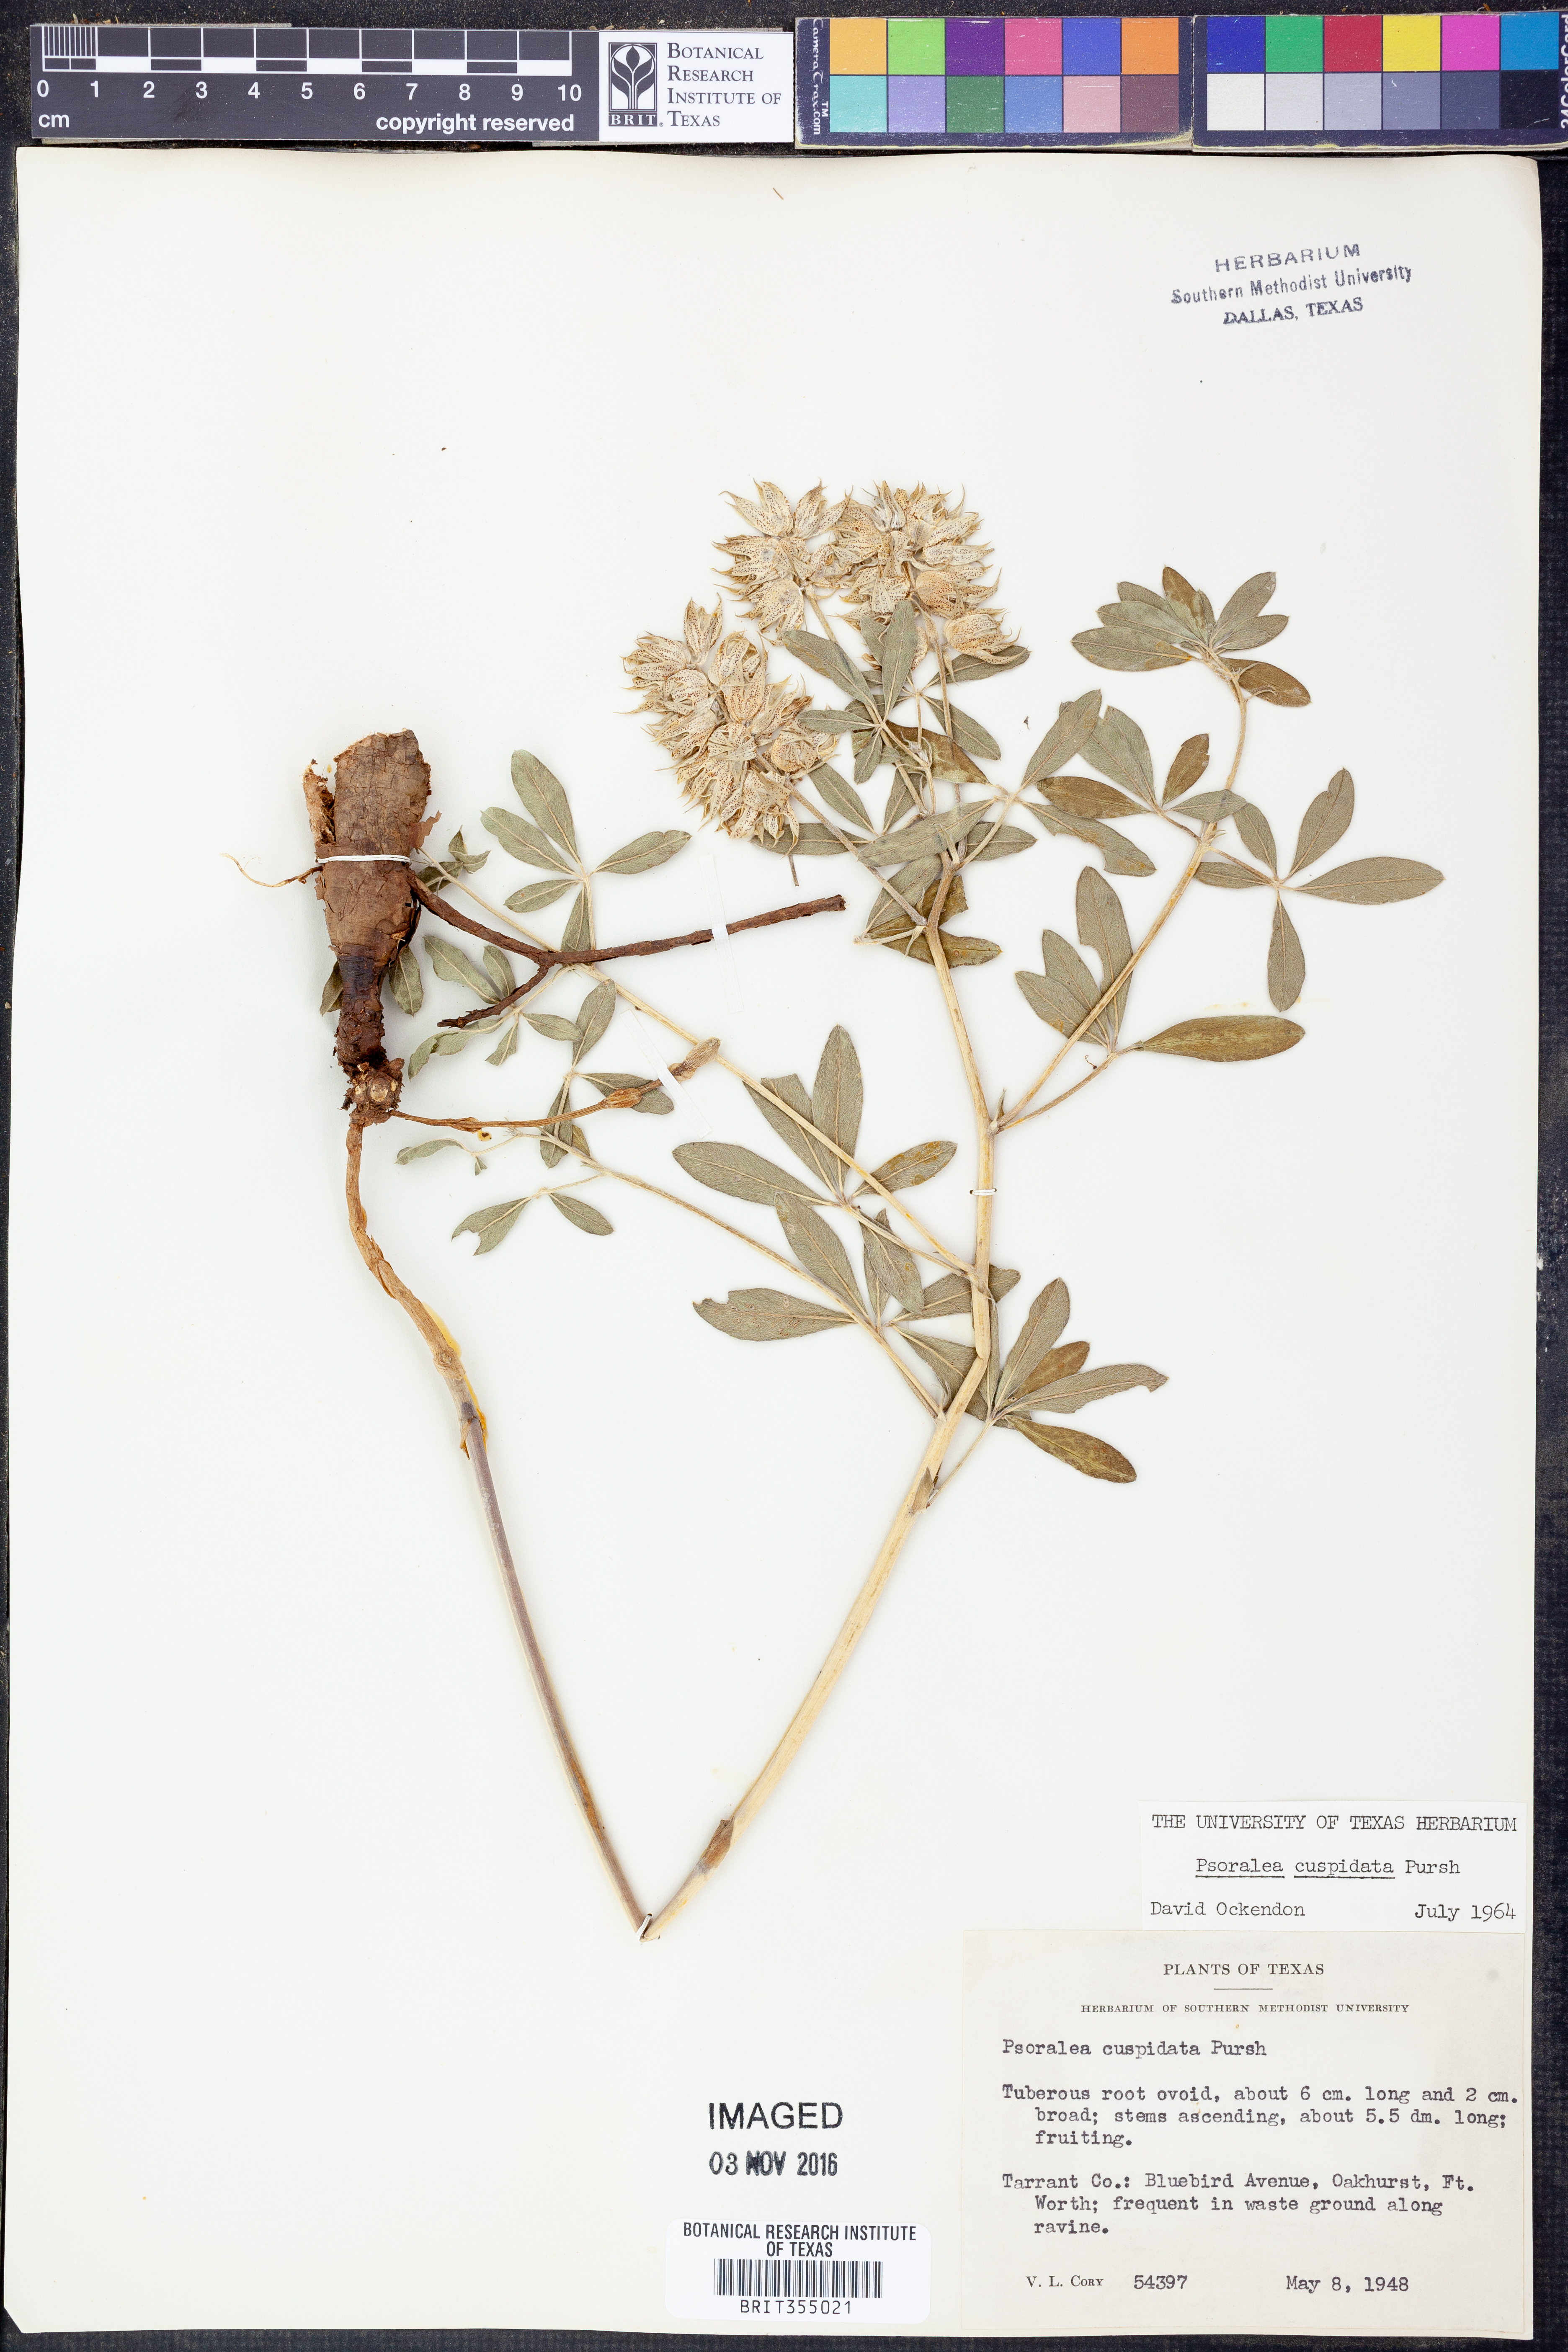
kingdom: Plantae
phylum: Tracheophyta
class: Magnoliopsida
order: Fabales
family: Fabaceae
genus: Pediomelum
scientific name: Pediomelum cuspidatum
